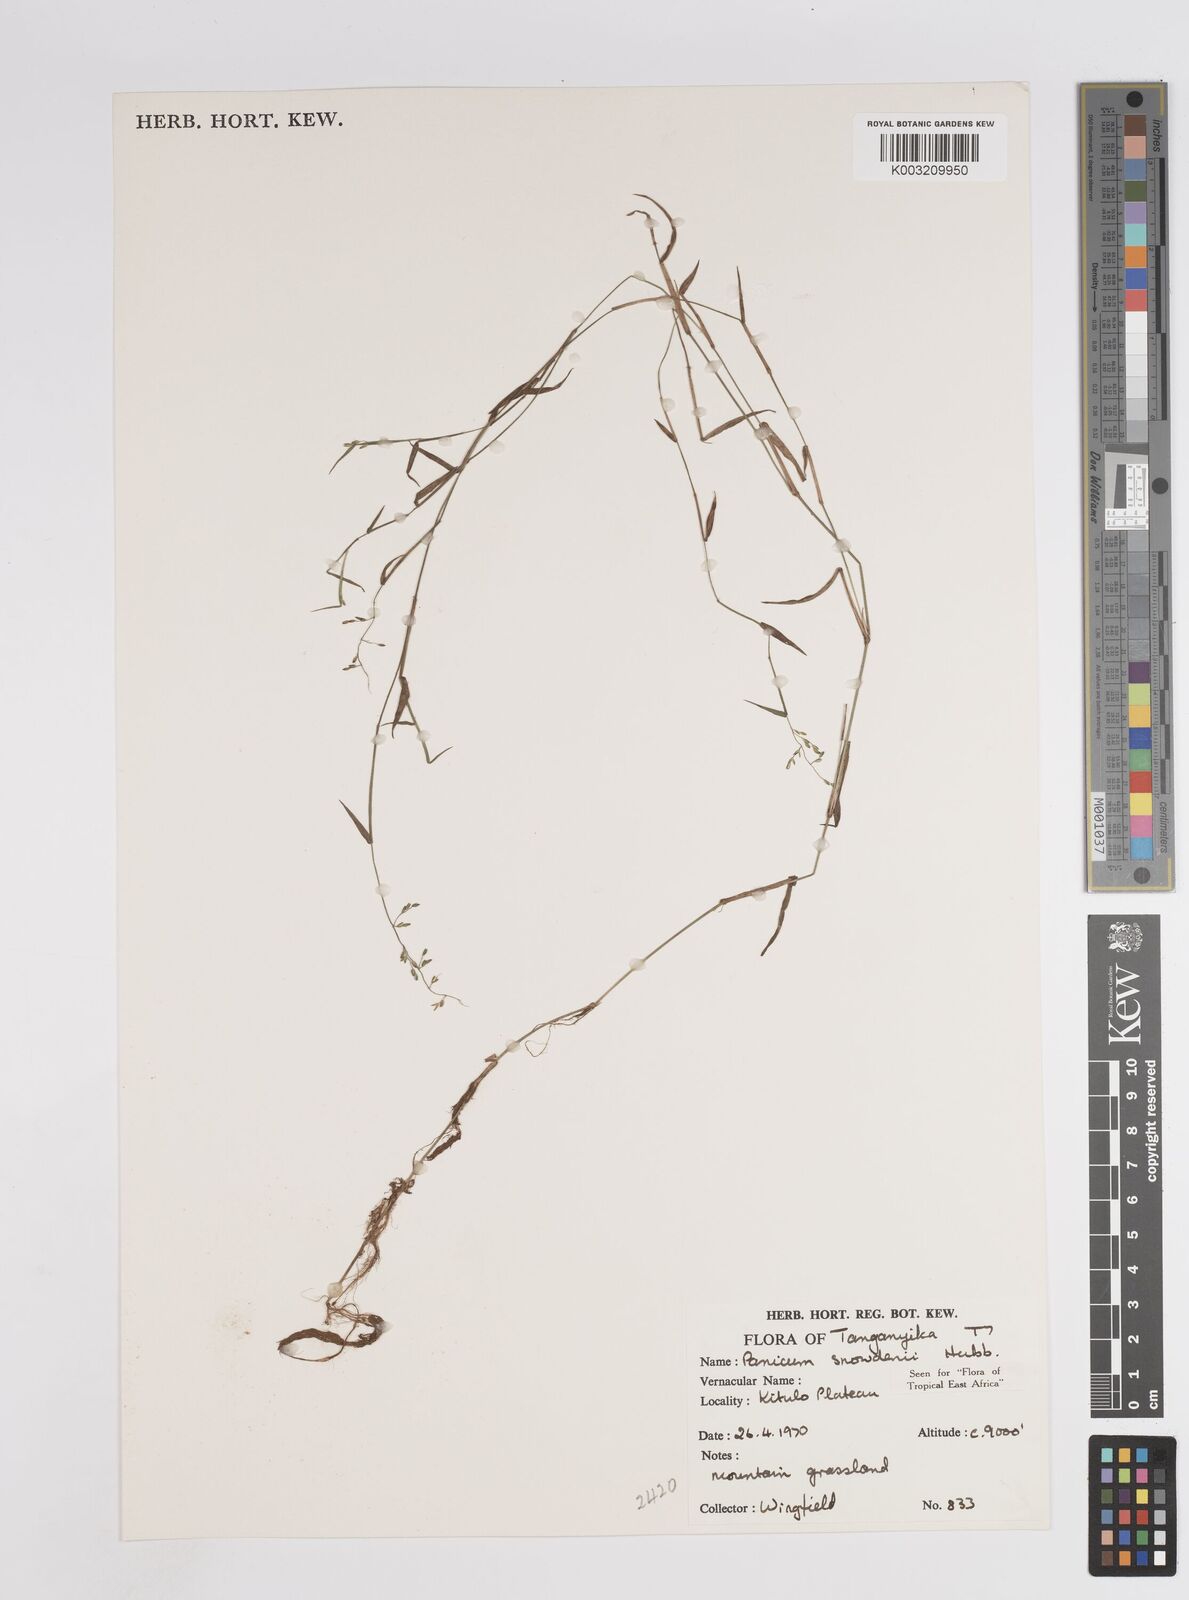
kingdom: Plantae
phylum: Tracheophyta
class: Liliopsida
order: Poales
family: Poaceae
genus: Adenochloa
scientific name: Adenochloa hymeniochila
